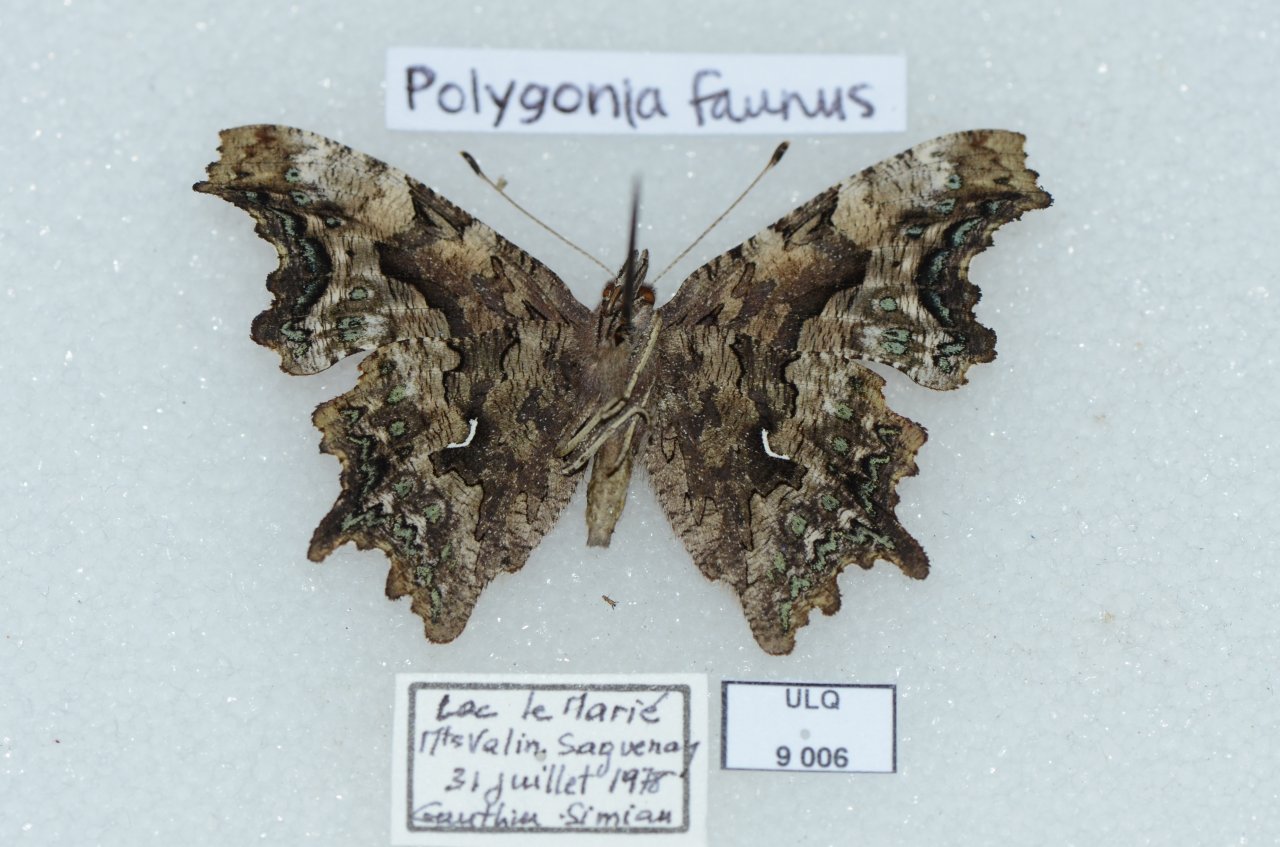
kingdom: Animalia
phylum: Arthropoda
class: Insecta
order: Lepidoptera
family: Nymphalidae
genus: Polygonia
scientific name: Polygonia faunus
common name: Green Comma
